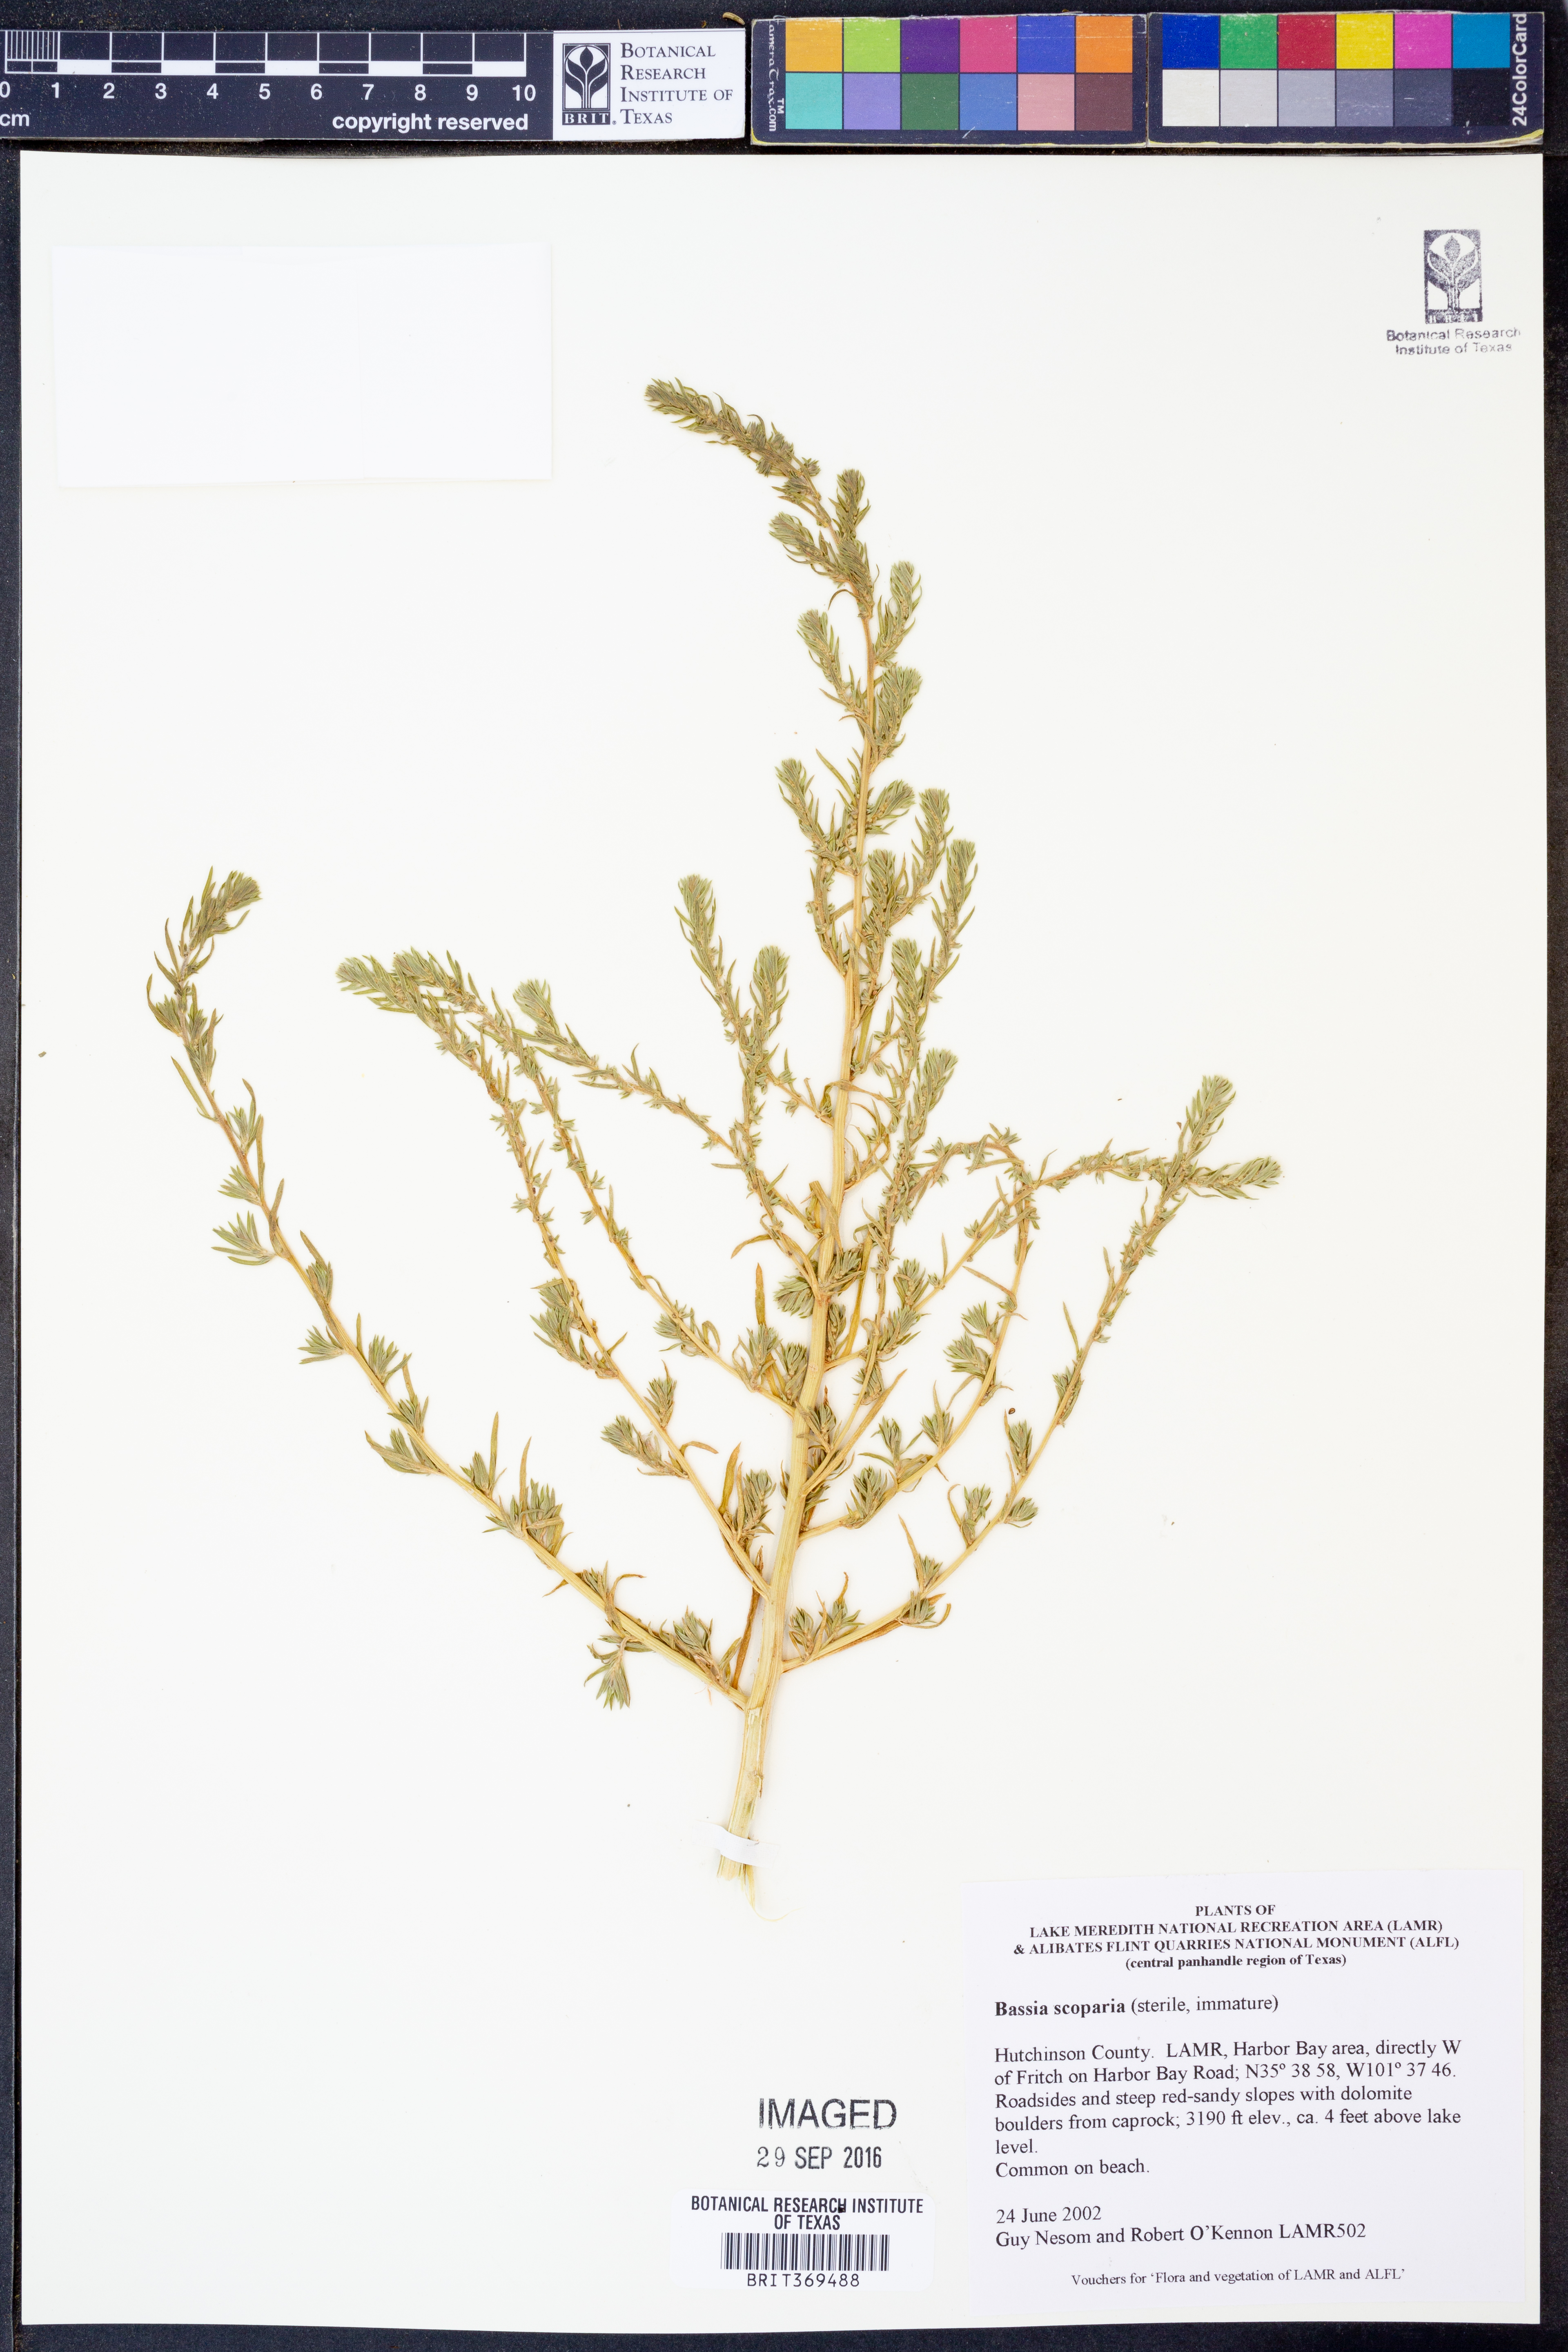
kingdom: Plantae
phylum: Tracheophyta
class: Magnoliopsida
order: Caryophyllales
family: Amaranthaceae
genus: Bassia
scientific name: Bassia scoparia
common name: Belvedere
